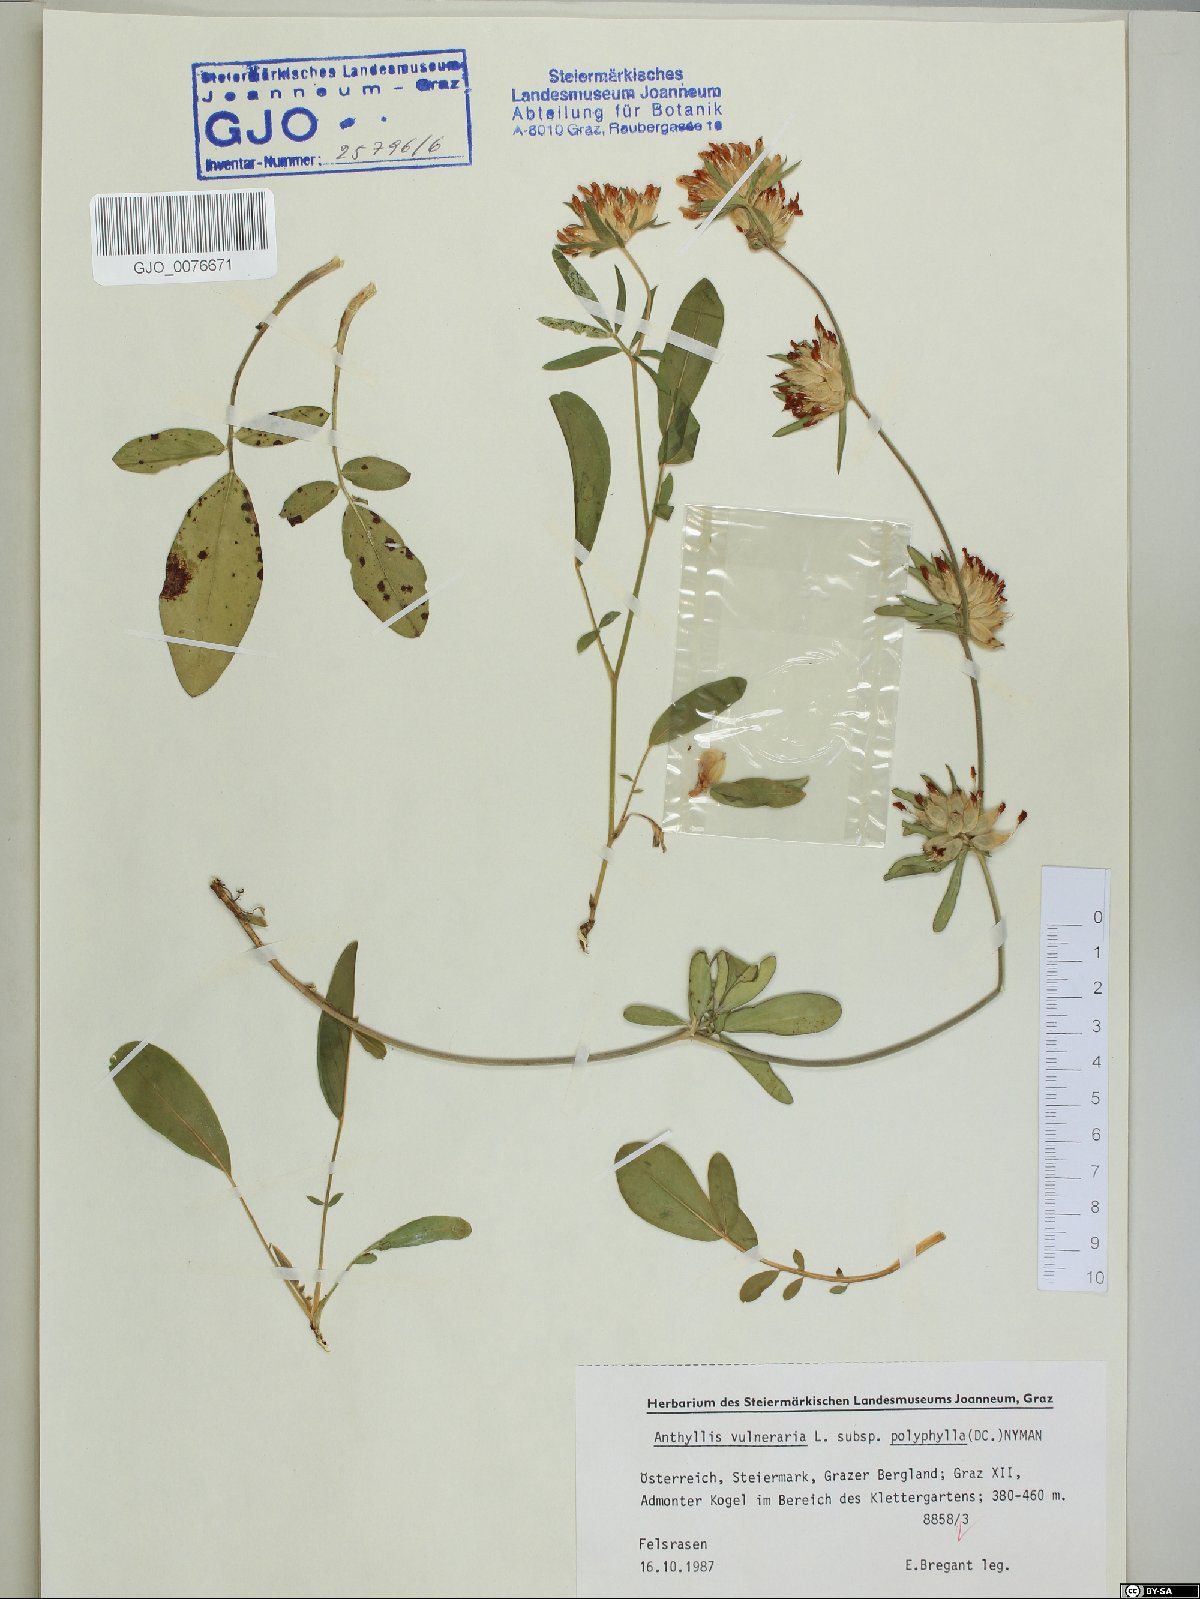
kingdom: Plantae
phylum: Tracheophyta
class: Magnoliopsida
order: Fabales
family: Fabaceae
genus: Anthyllis
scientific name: Anthyllis vulneraria
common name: Kidney vetch
